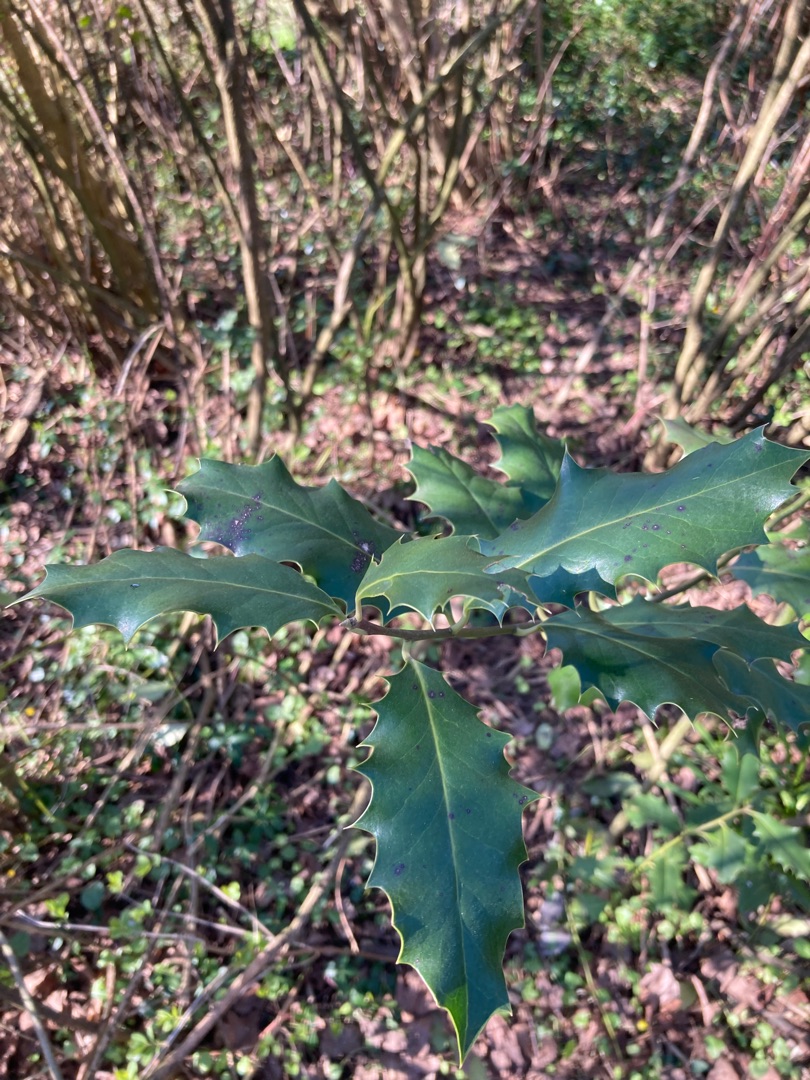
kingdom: Plantae
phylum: Tracheophyta
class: Magnoliopsida
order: Aquifoliales
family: Aquifoliaceae
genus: Ilex
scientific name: Ilex aquifolium
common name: Kristtorn
